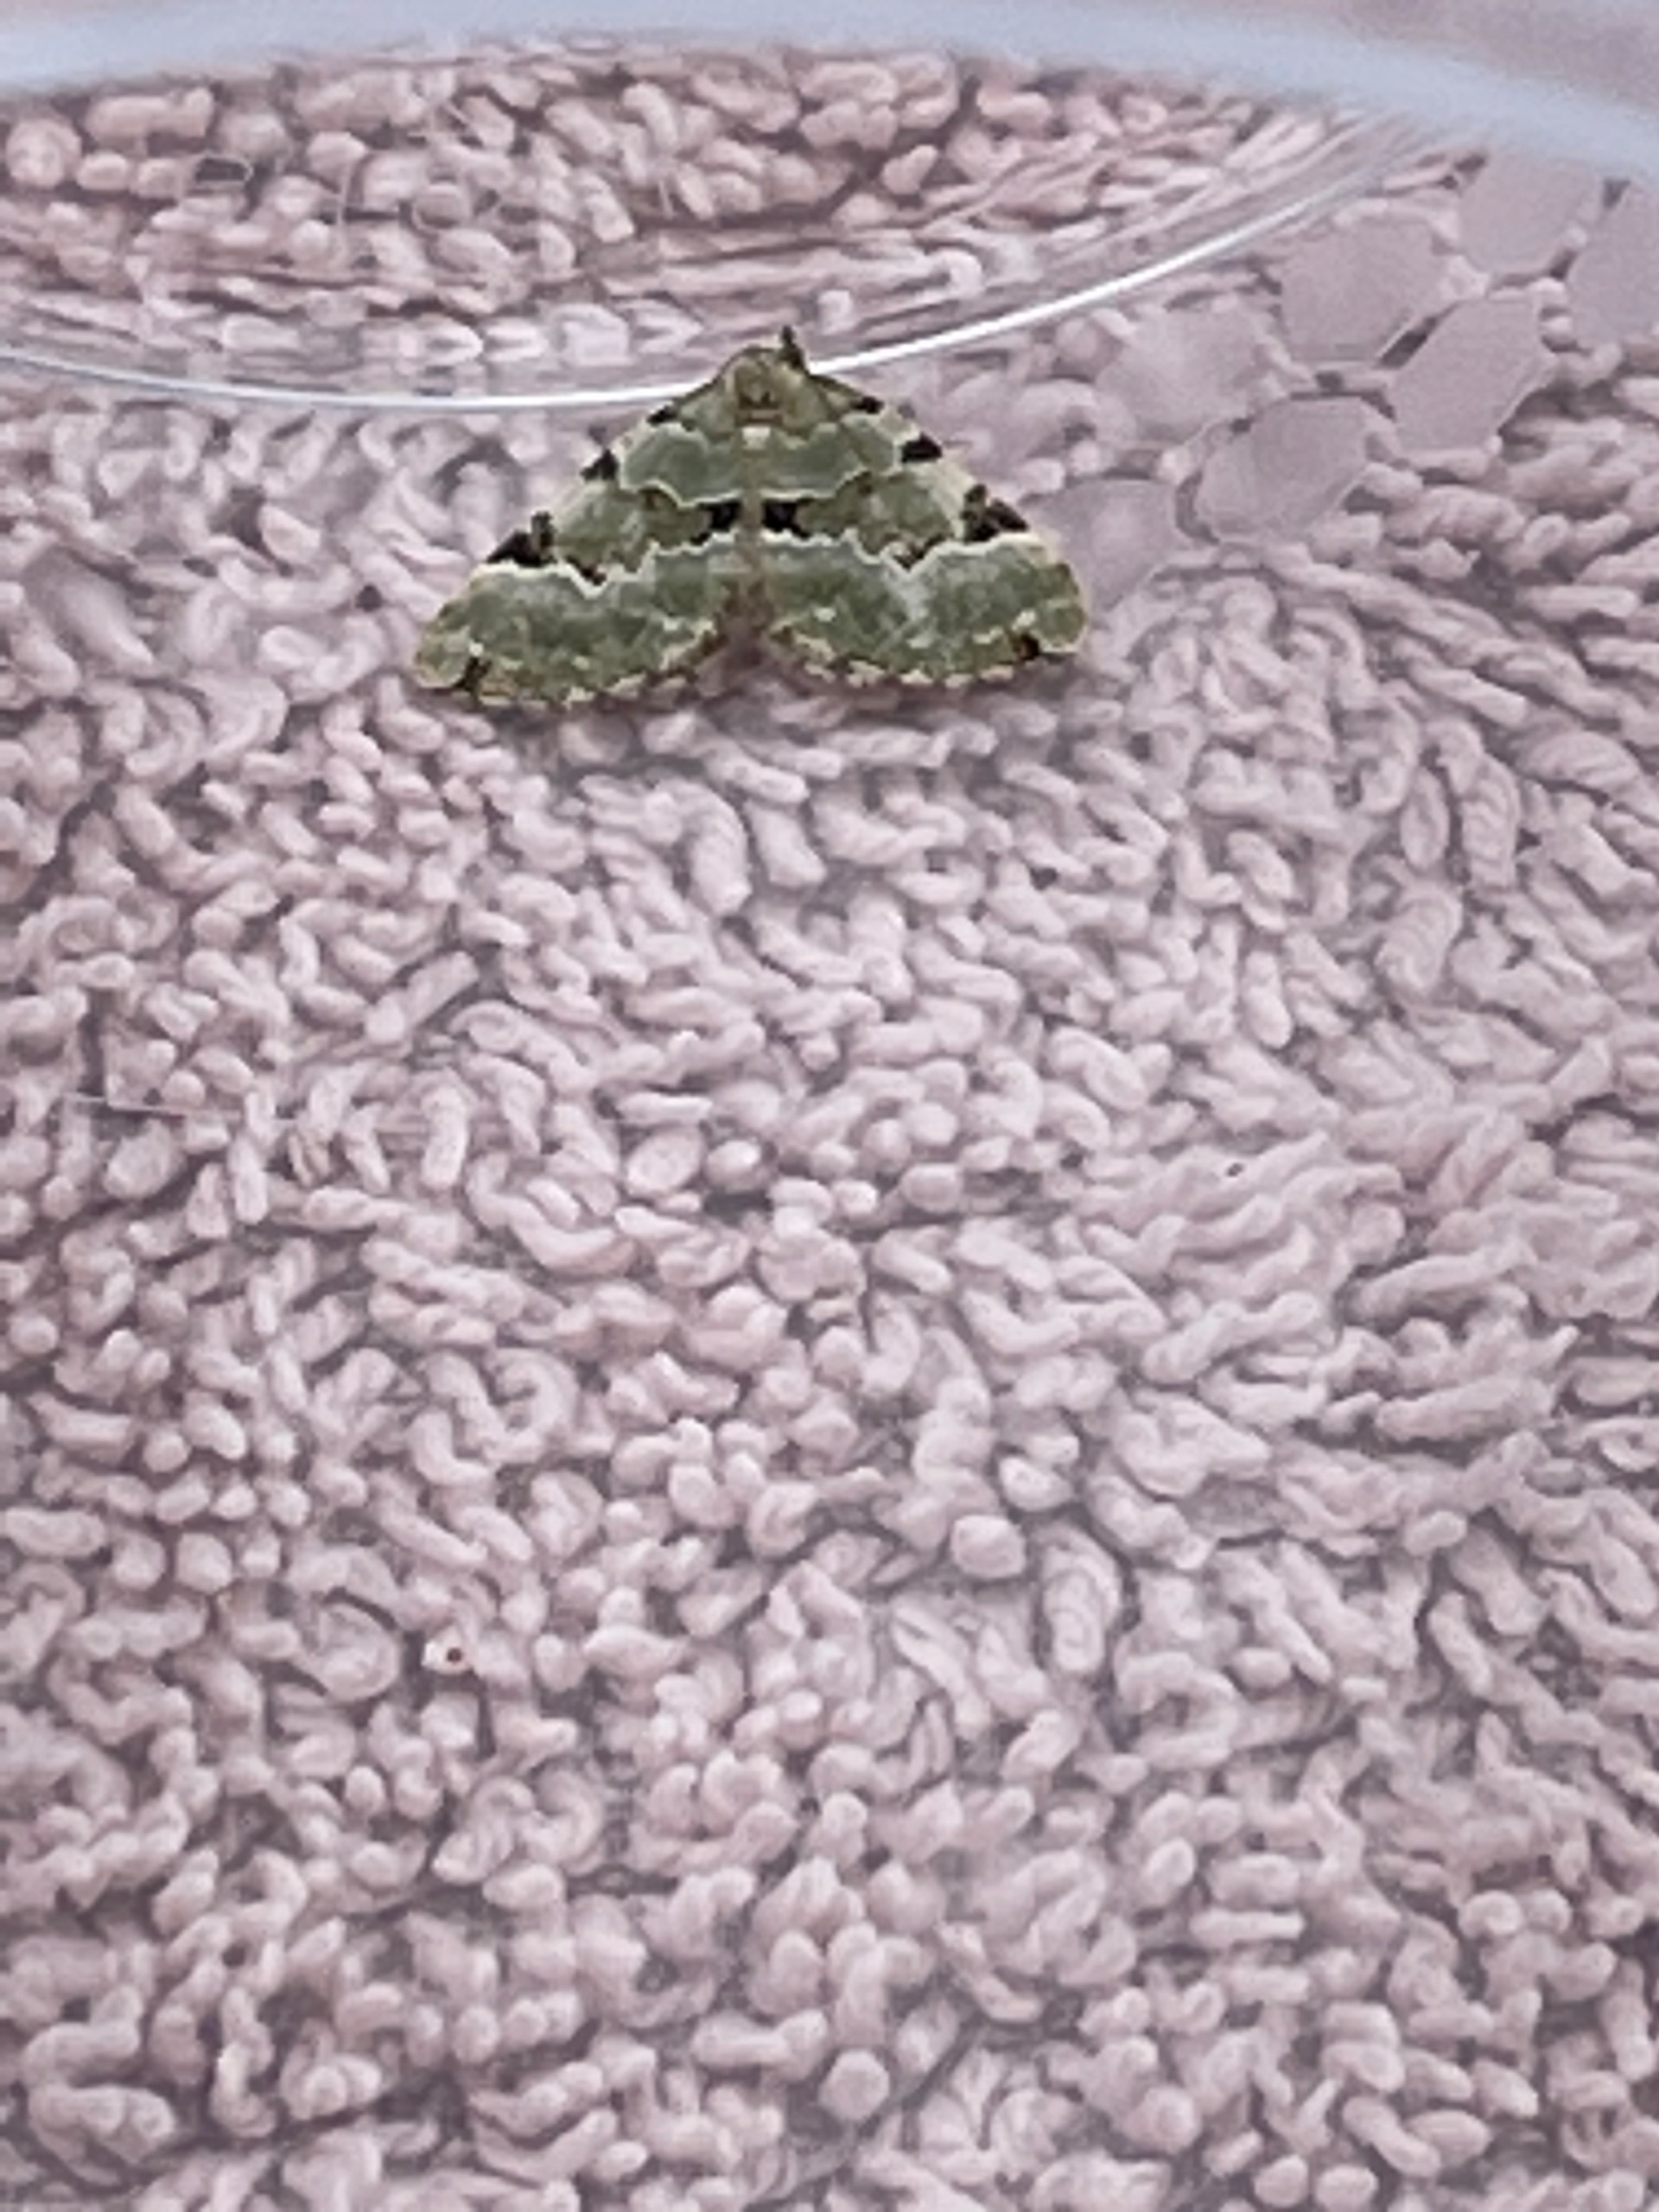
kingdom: Animalia
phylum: Arthropoda
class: Insecta
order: Lepidoptera
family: Geometridae
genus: Colostygia
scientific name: Colostygia pectinataria
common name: Grøn bladmåler
